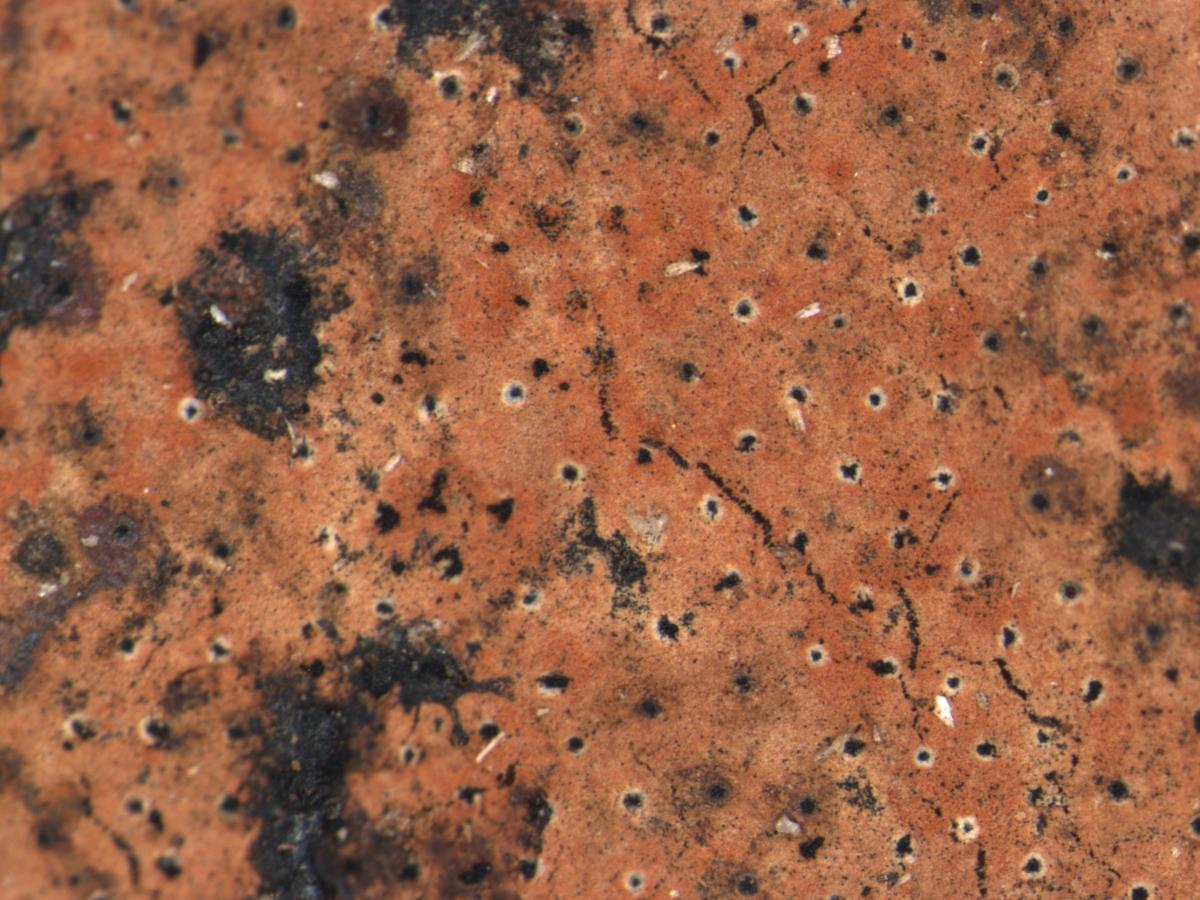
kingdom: Fungi
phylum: Ascomycota
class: Sordariomycetes
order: Xylariales
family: Hypoxylaceae
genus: Hypoxylon
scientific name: Hypoxylon cinnabarinum
